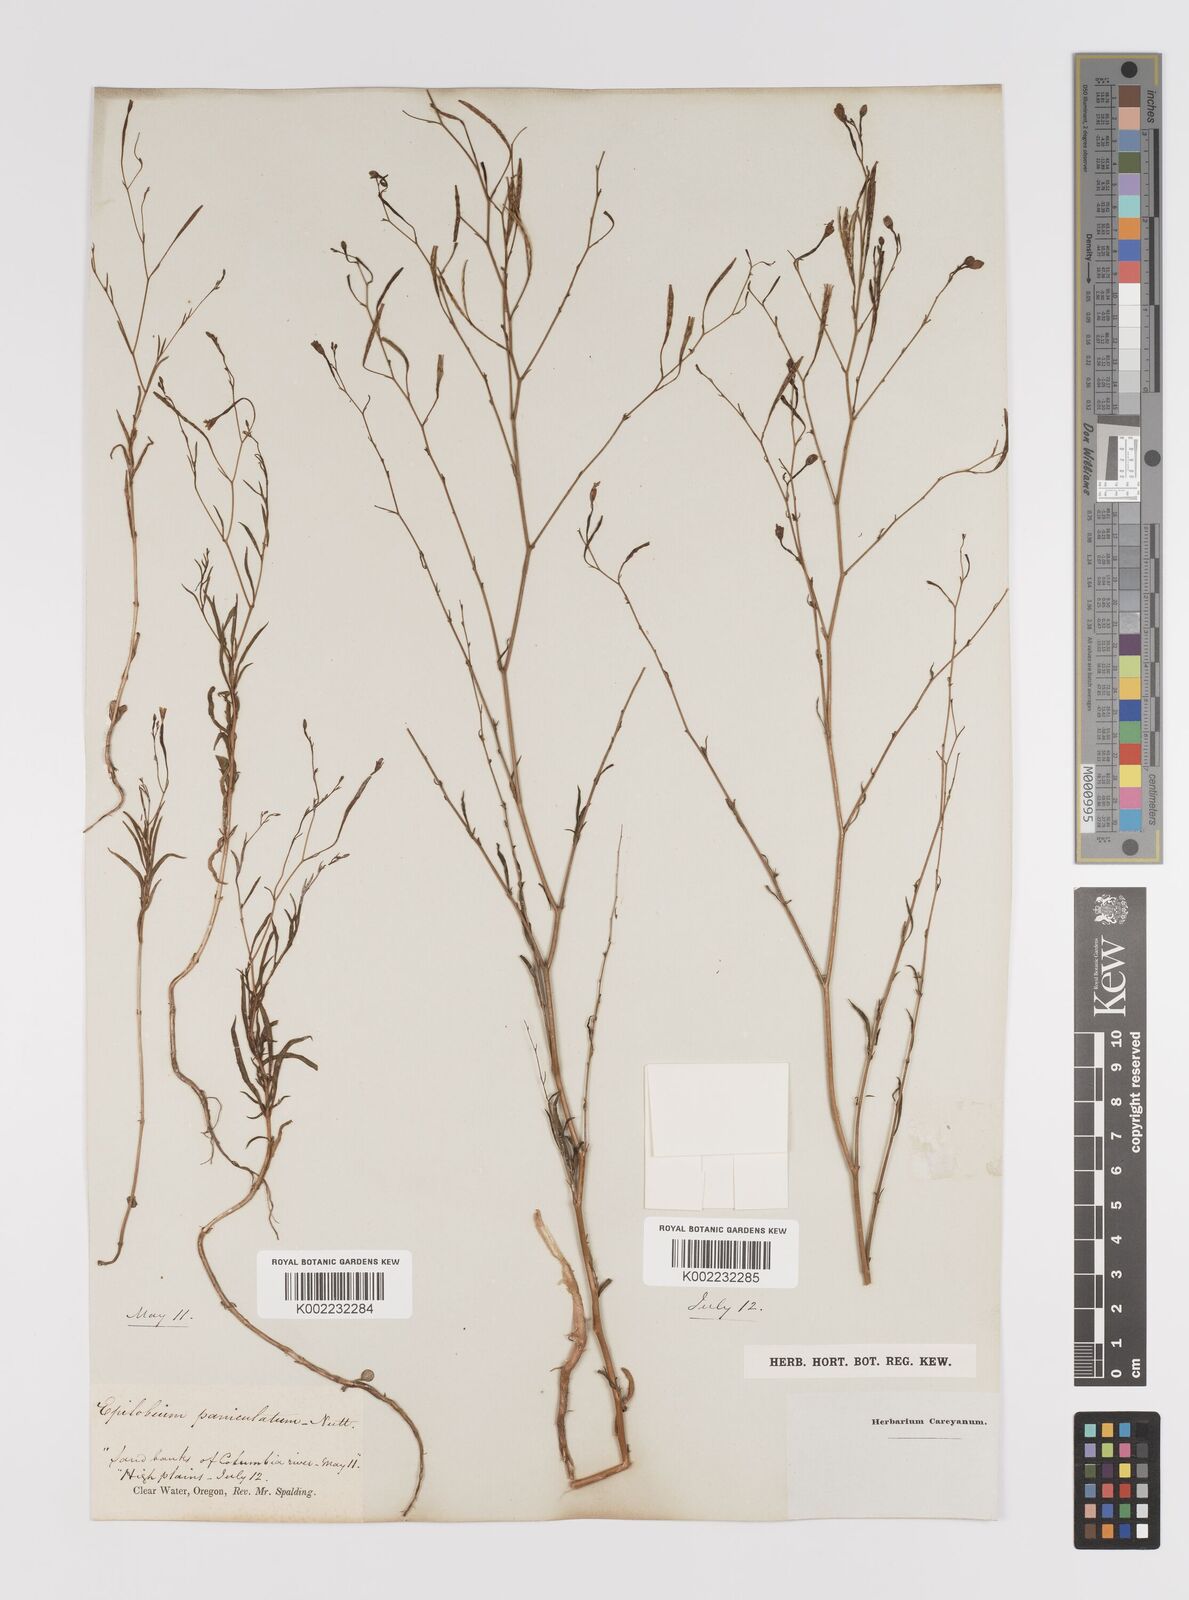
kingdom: Plantae
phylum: Tracheophyta
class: Magnoliopsida
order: Myrtales
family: Onagraceae
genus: Epilobium
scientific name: Epilobium
